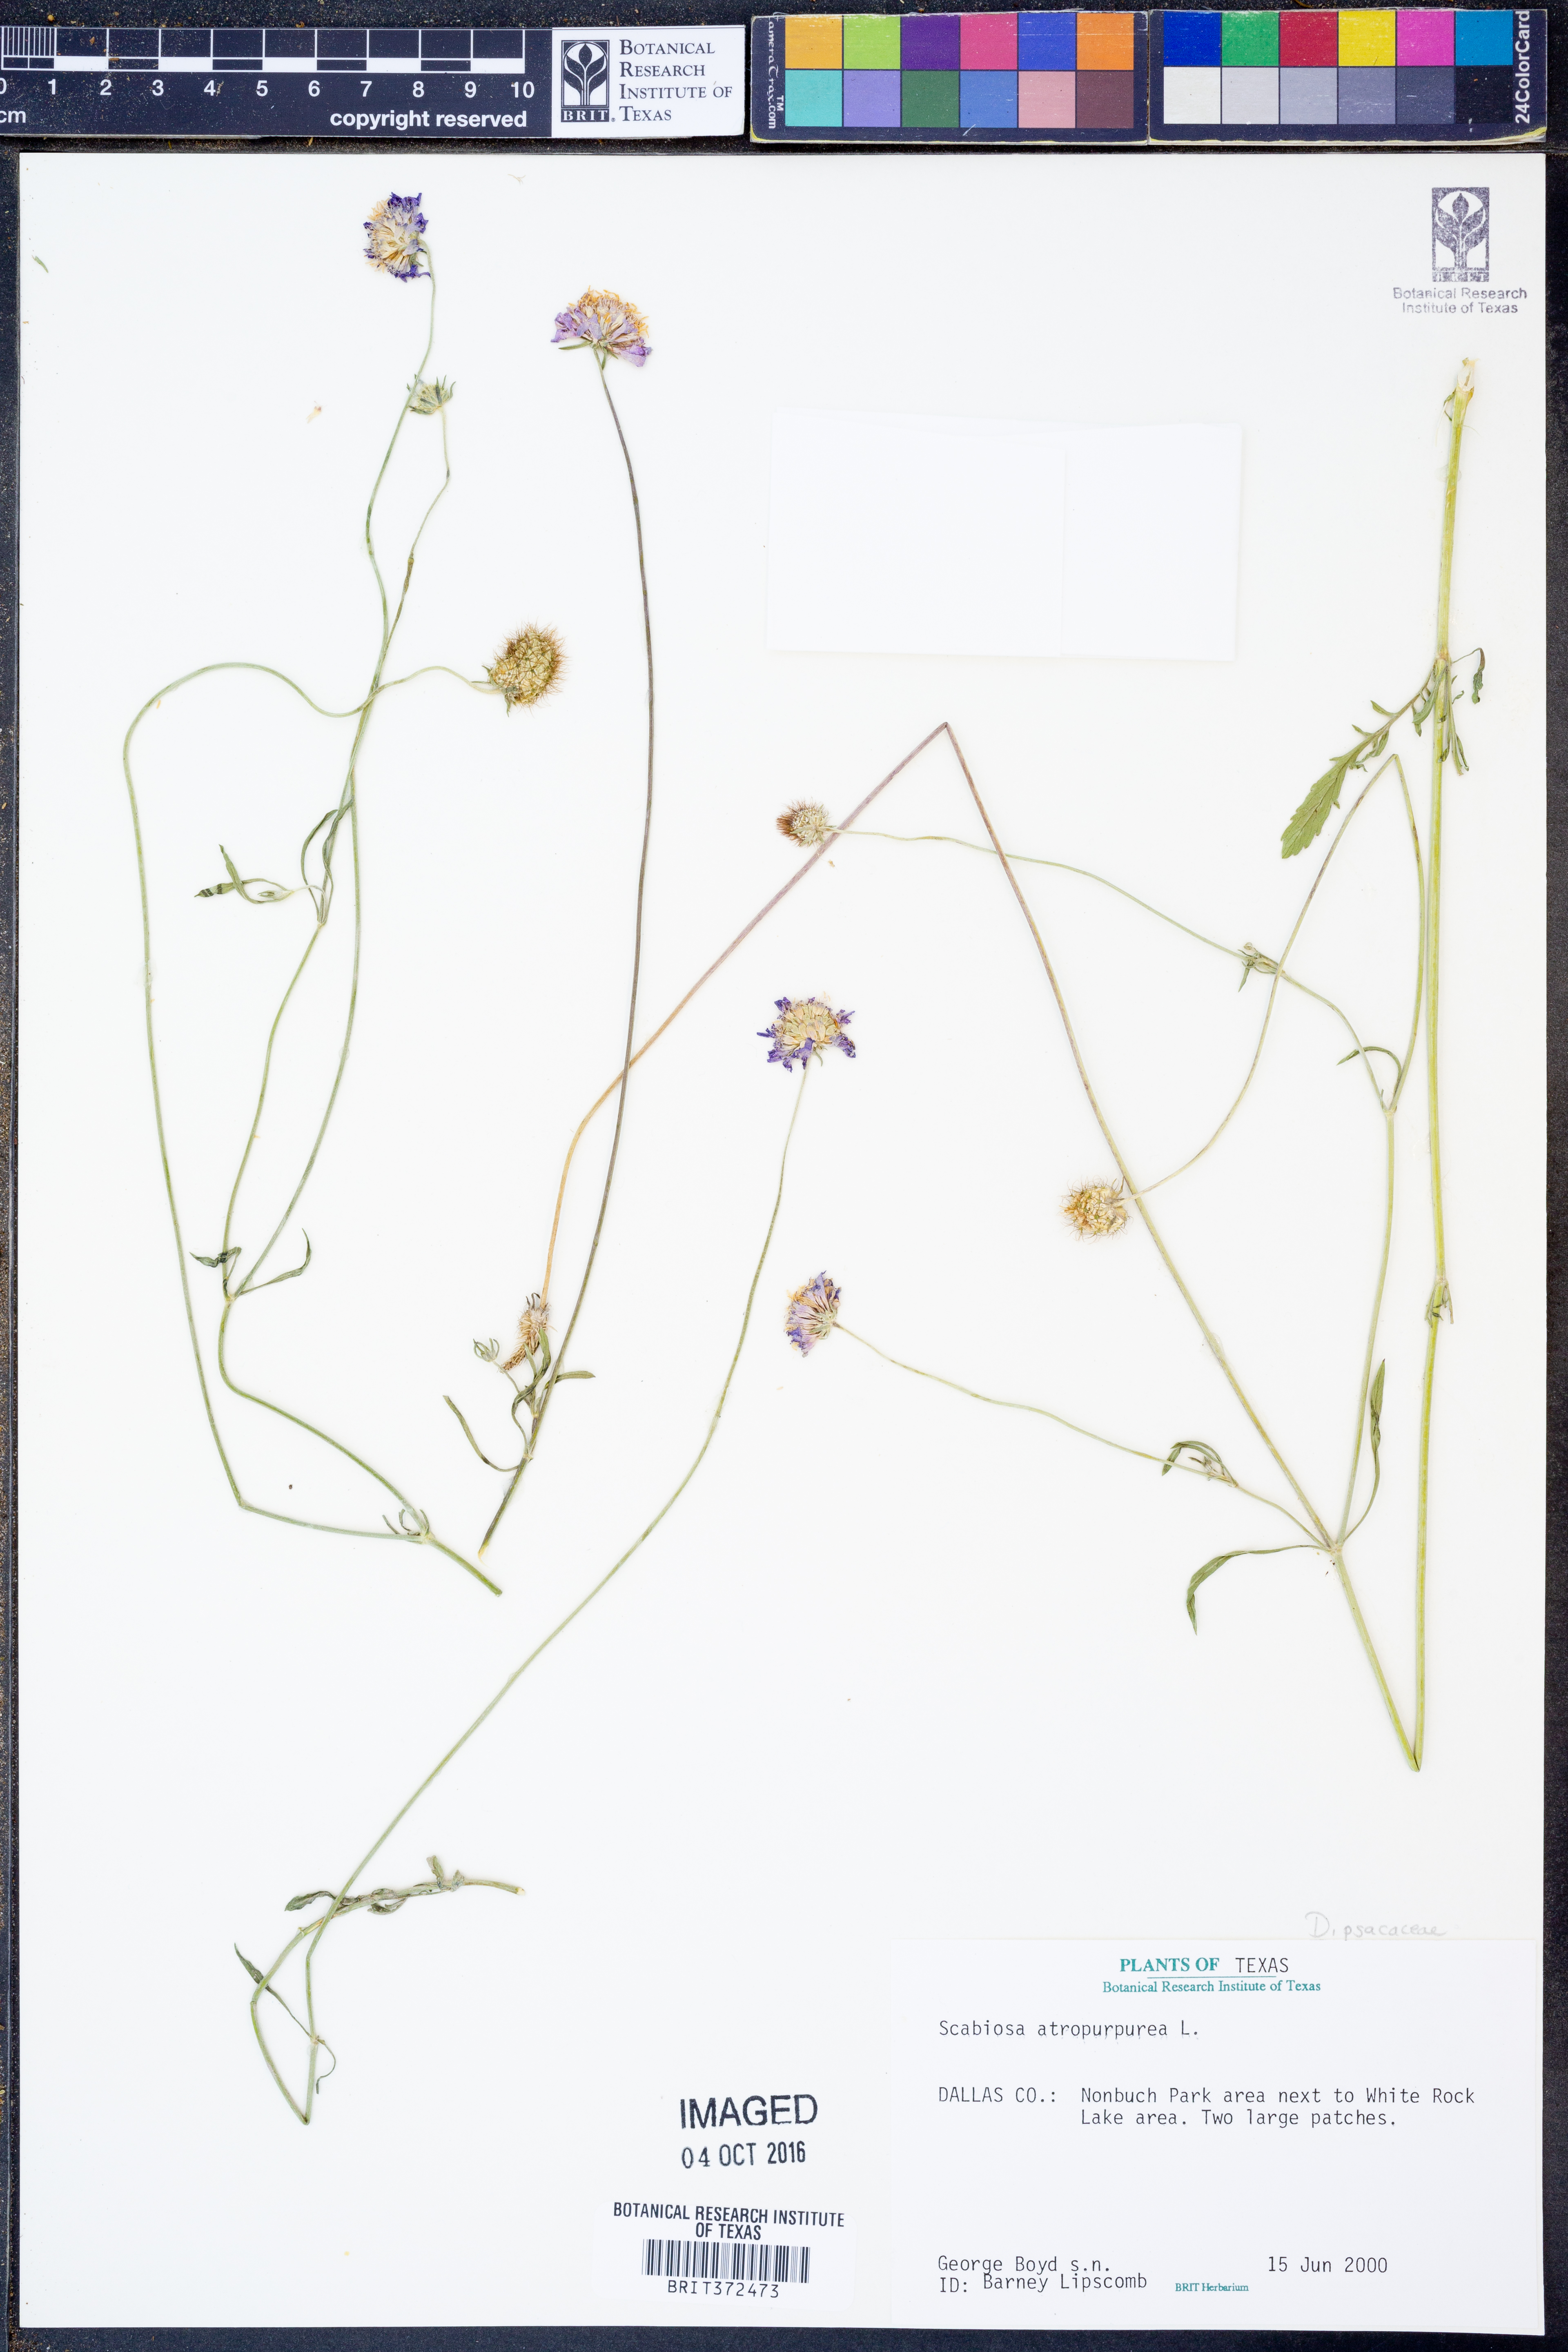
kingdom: Plantae
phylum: Tracheophyta
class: Magnoliopsida
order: Dipsacales
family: Caprifoliaceae
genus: Sixalix
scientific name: Sixalix atropurpurea
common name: Sweet scabious
